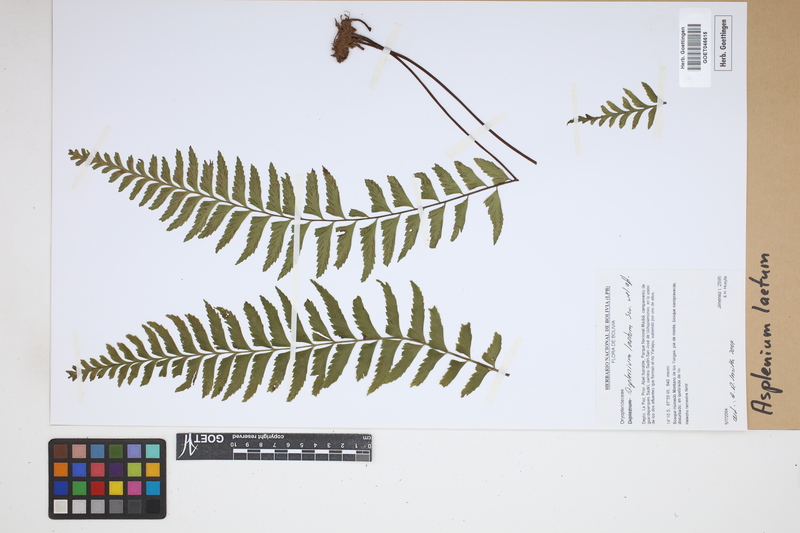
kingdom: Plantae
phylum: Tracheophyta
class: Polypodiopsida
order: Polypodiales
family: Aspleniaceae
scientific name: Aspleniaceae
